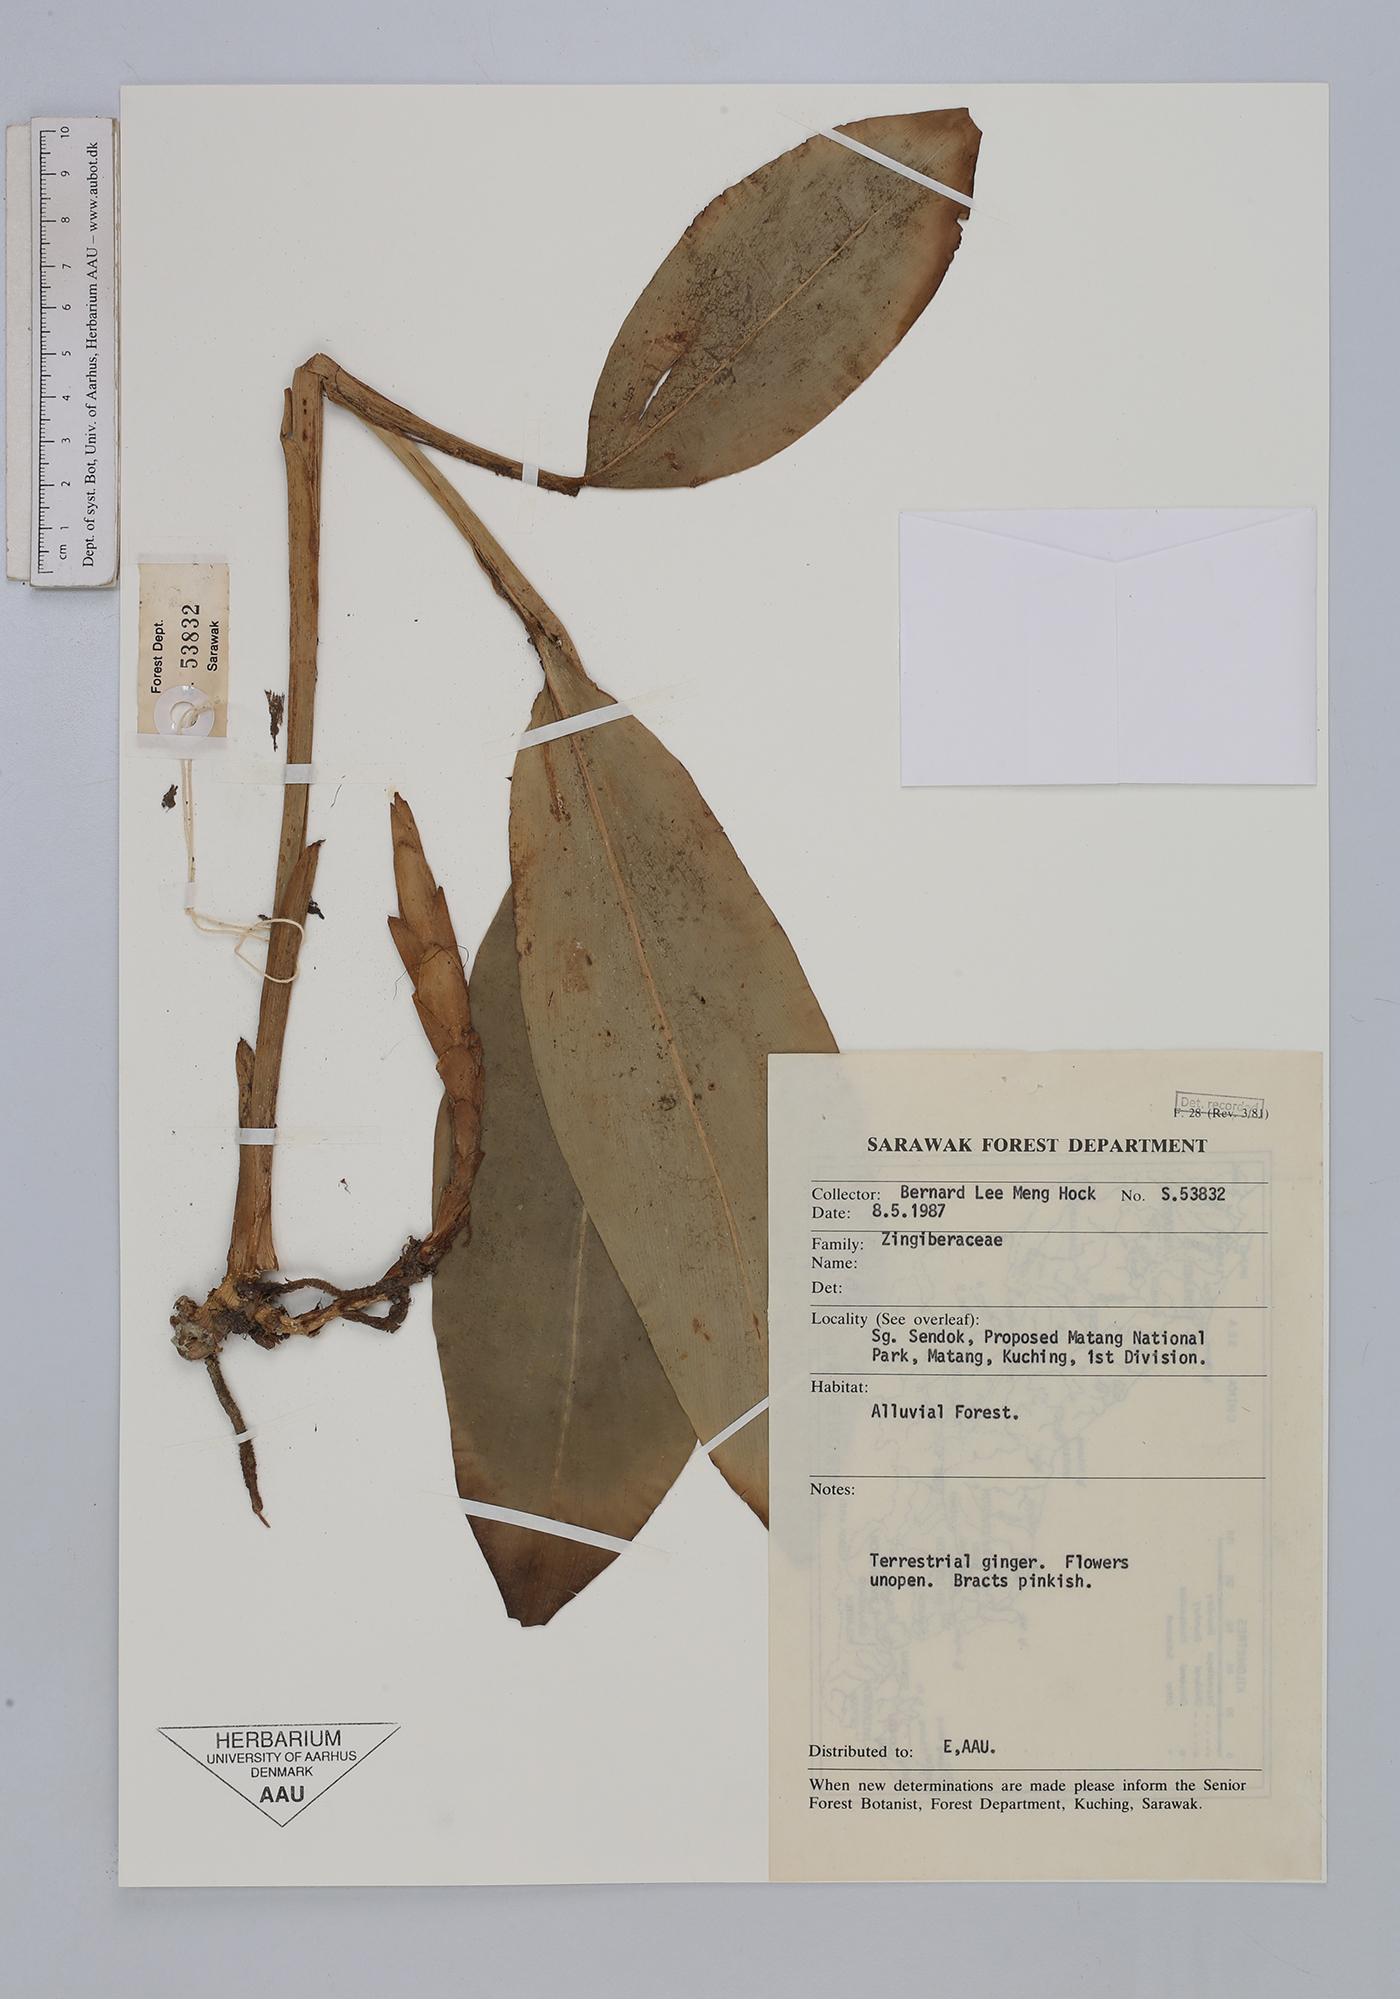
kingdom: Plantae
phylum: Tracheophyta
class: Liliopsida
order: Zingiberales
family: Zingiberaceae
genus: Zingiber
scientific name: Zingiber
